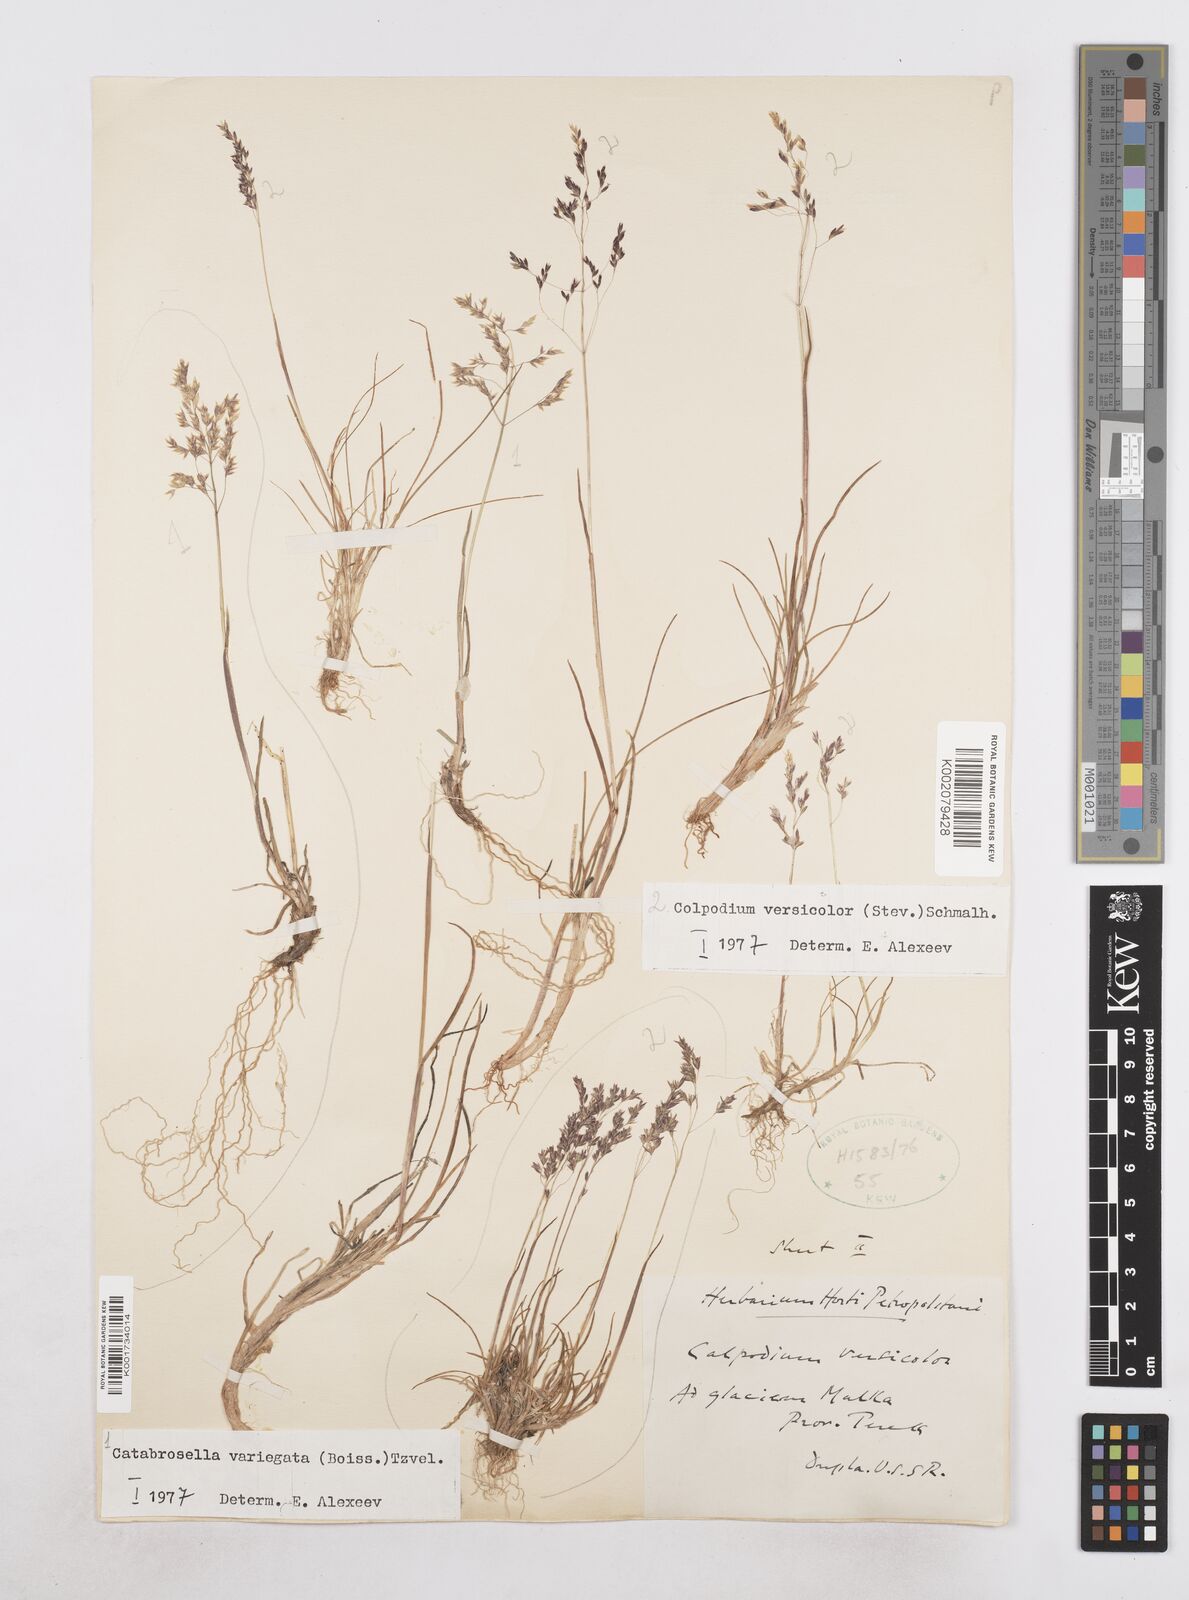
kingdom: Plantae
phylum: Tracheophyta
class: Liliopsida
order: Poales
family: Poaceae
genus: Catabrosella
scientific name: Catabrosella variegata
